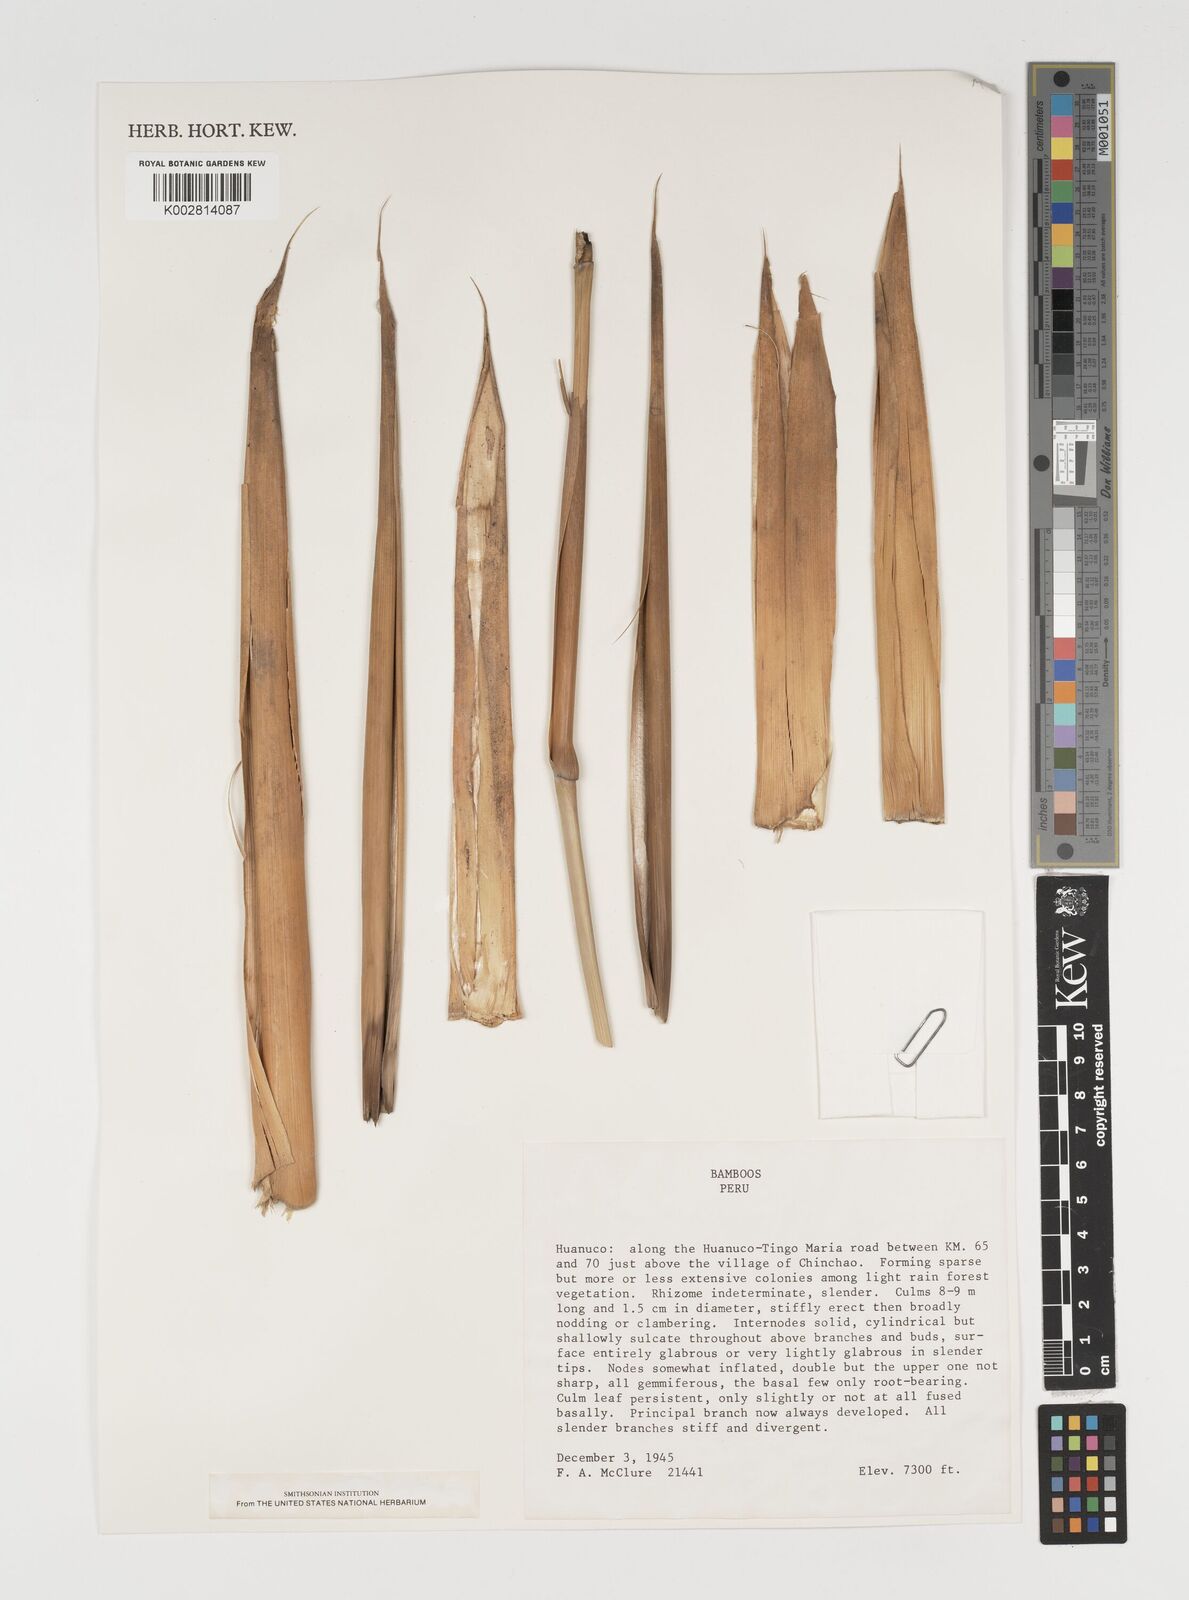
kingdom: Plantae
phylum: Tracheophyta
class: Liliopsida
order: Poales
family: Poaceae
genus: Chusquea
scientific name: Chusquea
